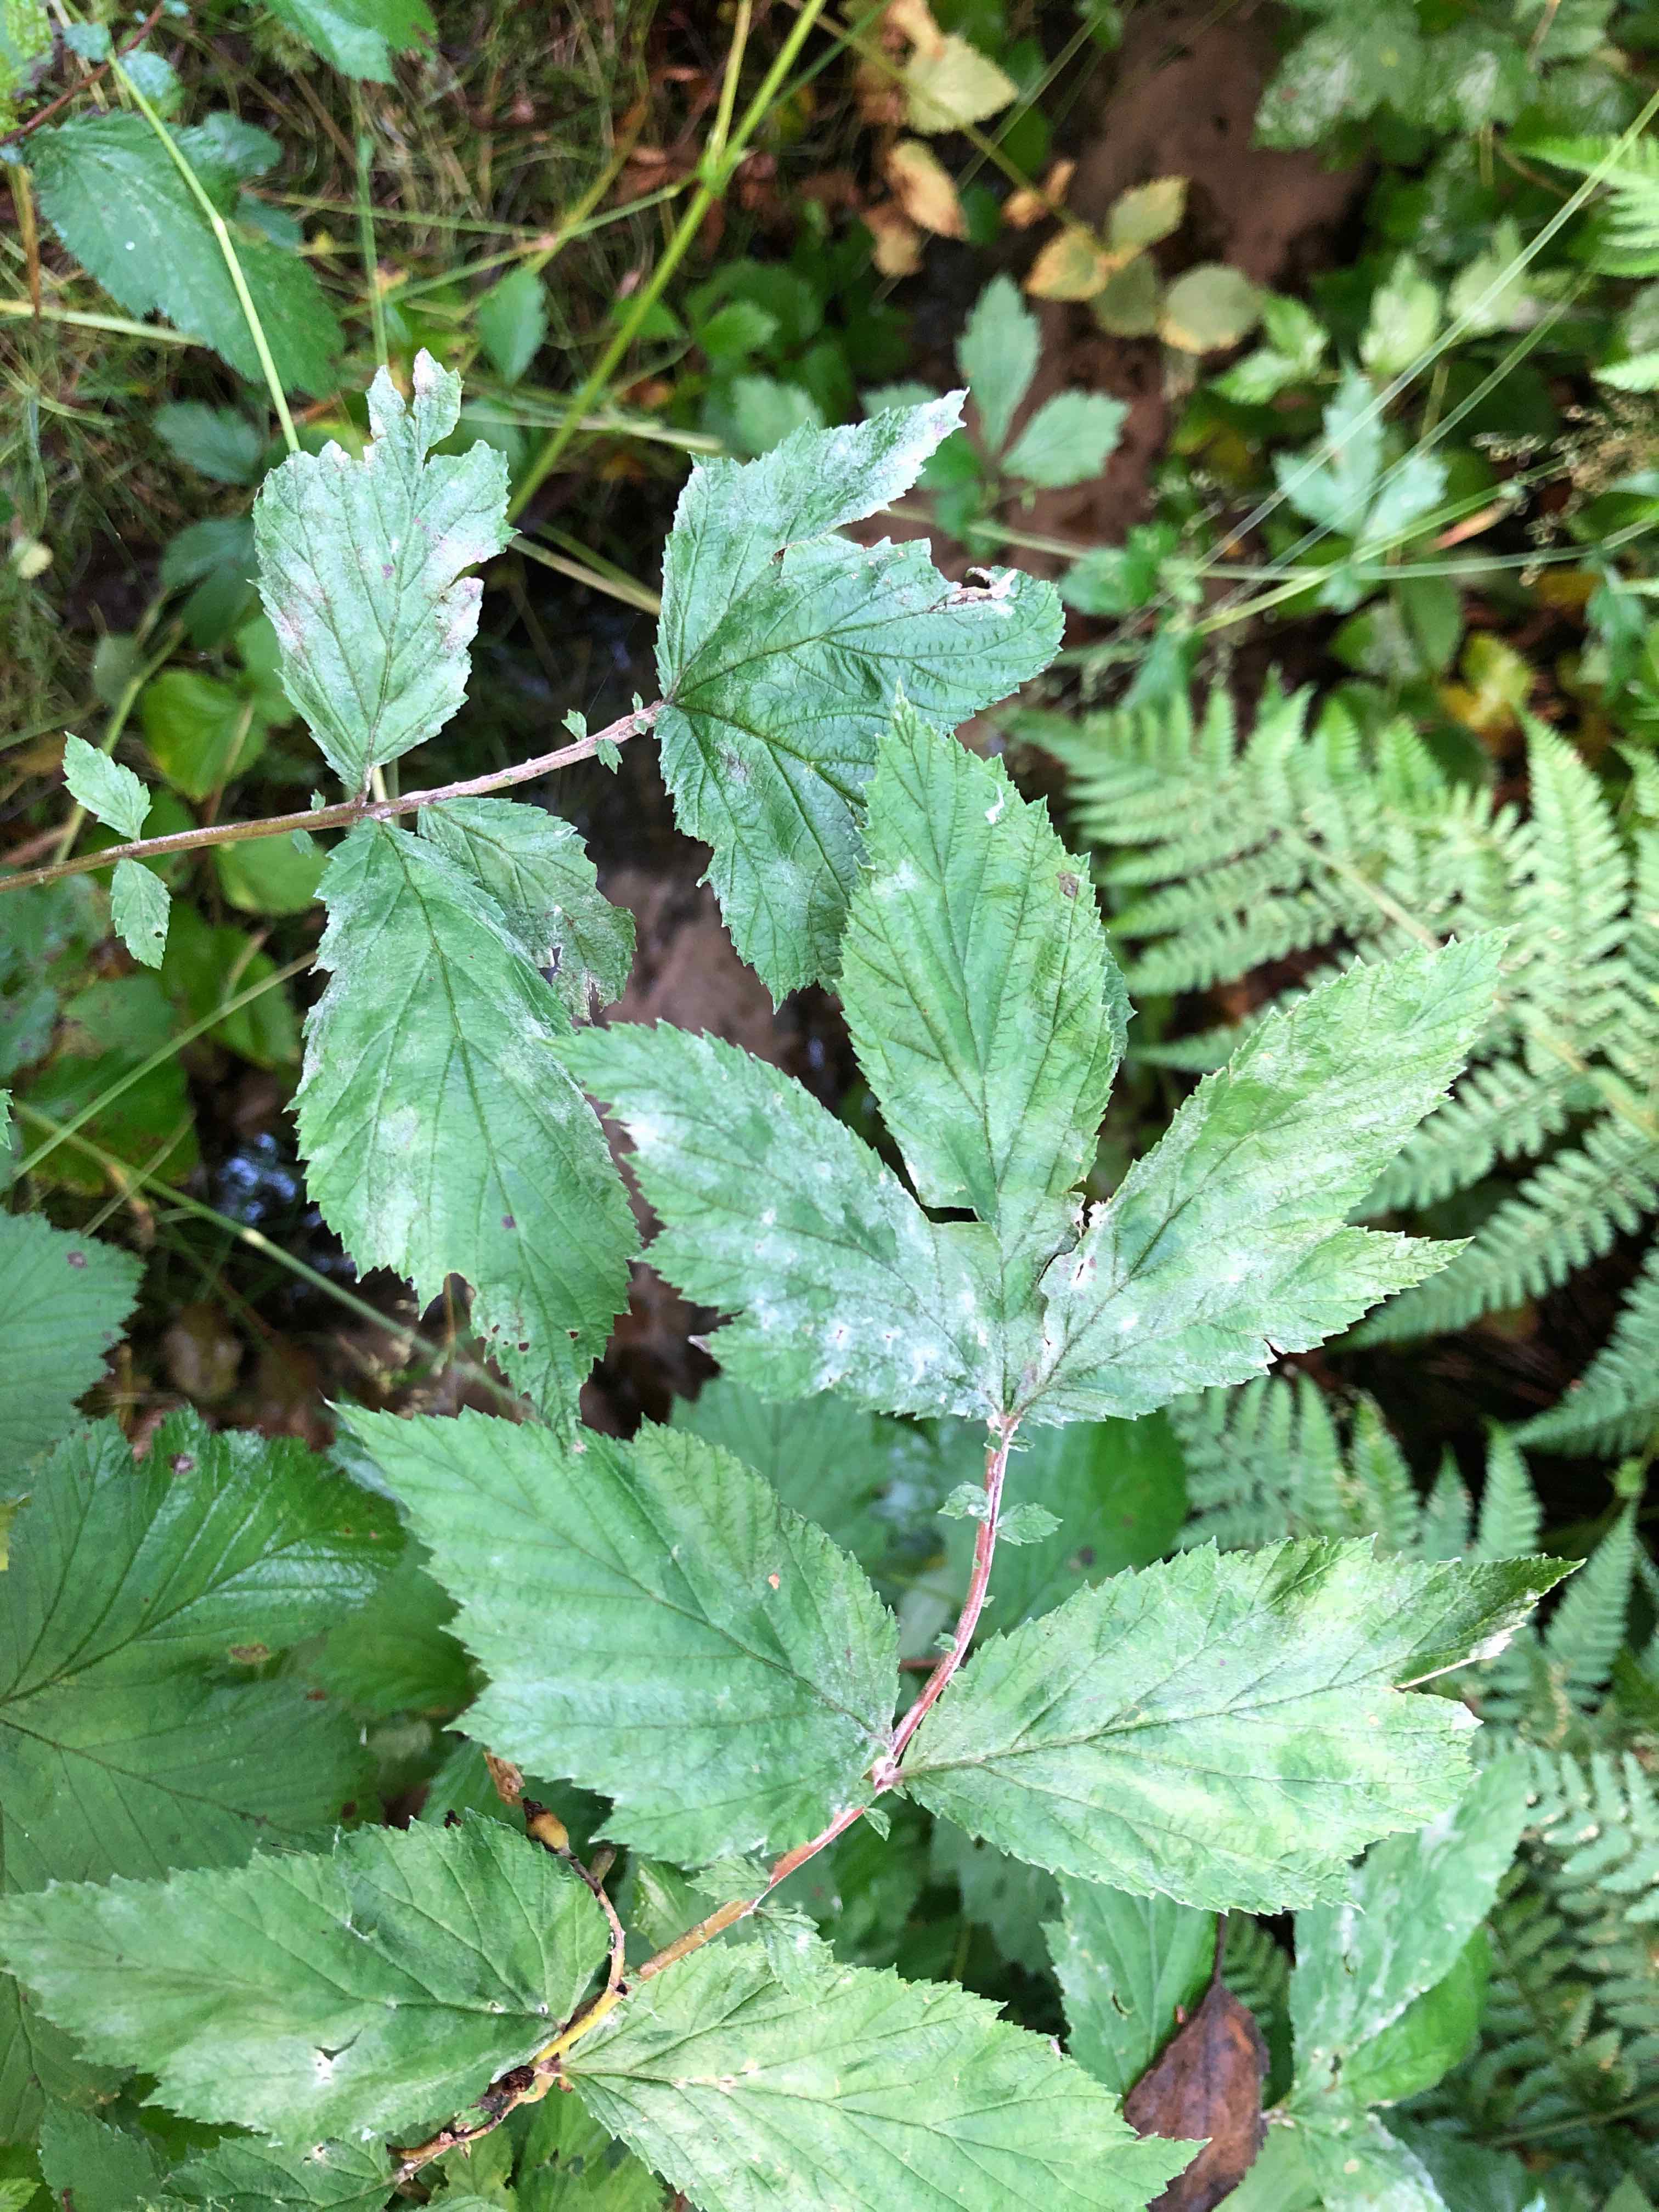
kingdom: Fungi
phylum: Ascomycota
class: Leotiomycetes
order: Helotiales
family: Erysiphaceae
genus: Podosphaera
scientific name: Podosphaera filipendulae
